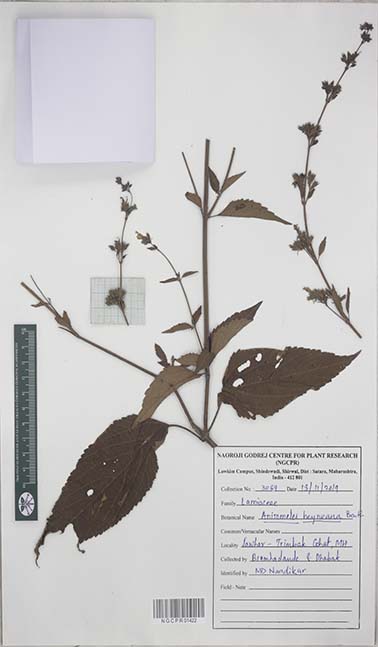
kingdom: Plantae
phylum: Tracheophyta
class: Magnoliopsida
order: Lamiales
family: Lamiaceae
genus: Anisomeles
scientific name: Anisomeles heyneana
